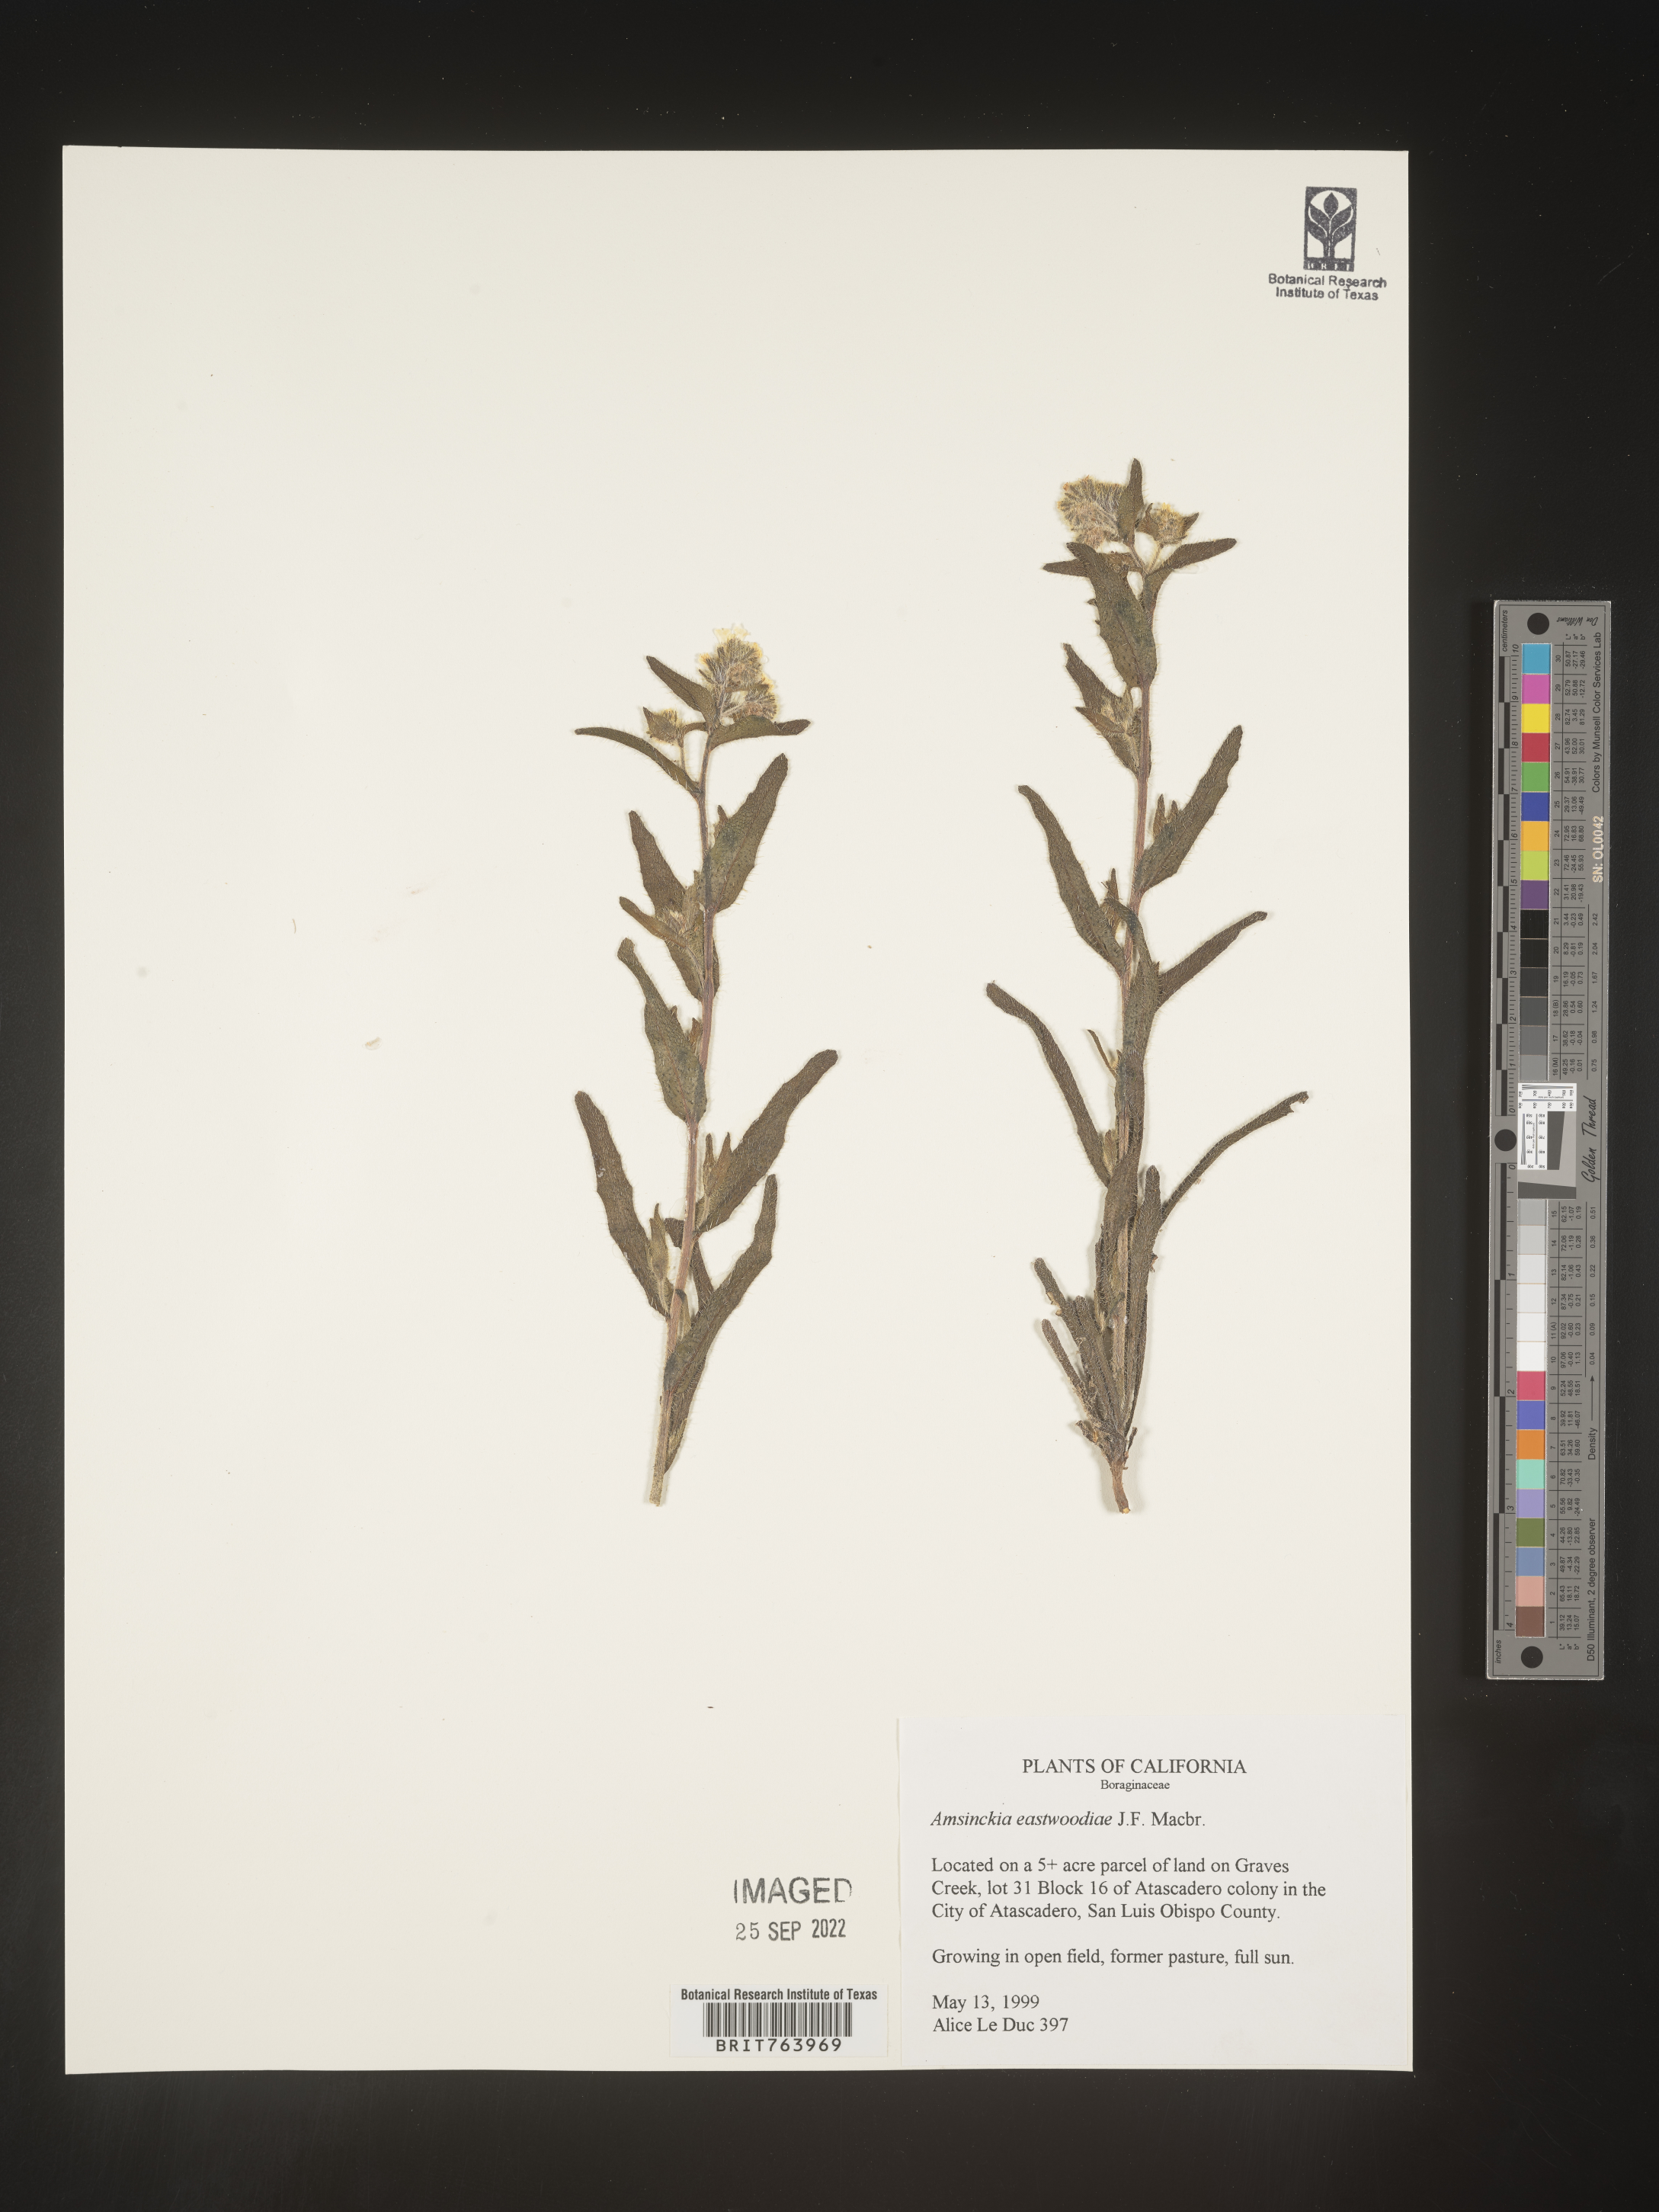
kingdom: Plantae
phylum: Tracheophyta
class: Magnoliopsida
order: Boraginales
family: Boraginaceae
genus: Amsinckia
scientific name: Amsinckia
